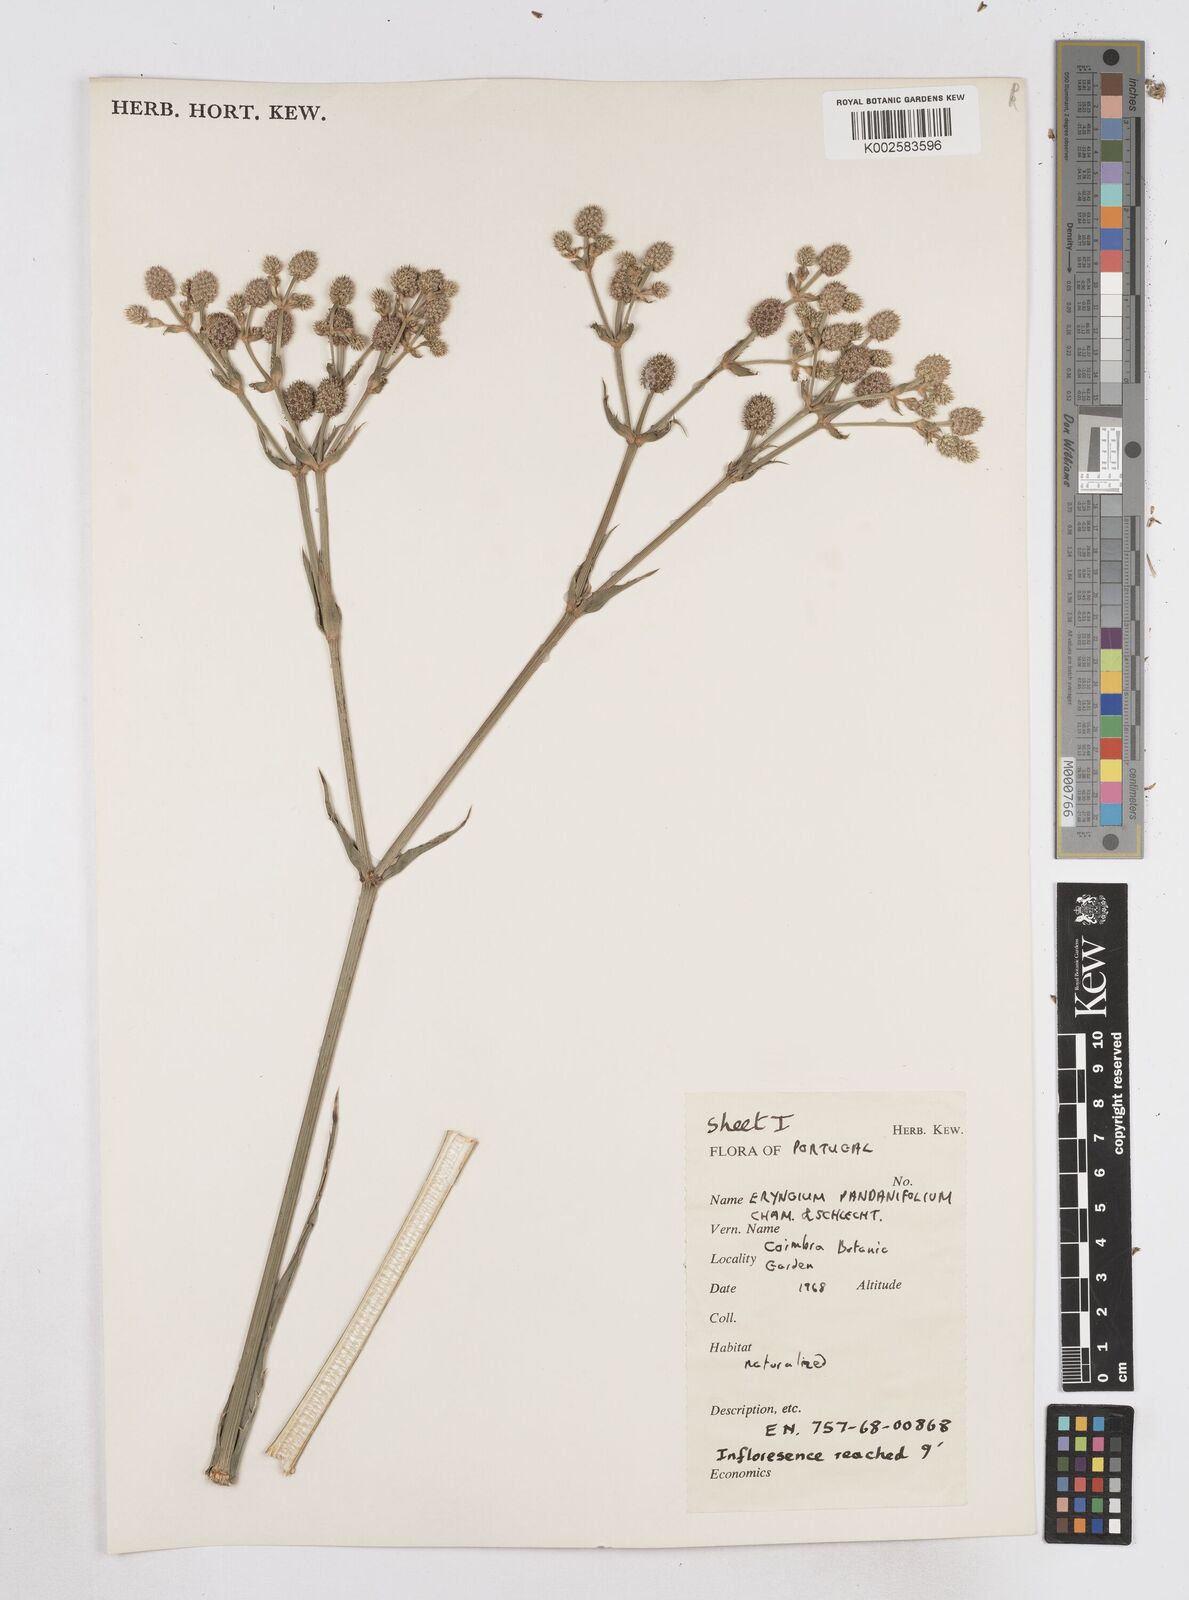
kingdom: Plantae
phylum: Tracheophyta
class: Magnoliopsida
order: Apiales
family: Apiaceae
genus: Eryngium
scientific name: Eryngium pandanifolium
